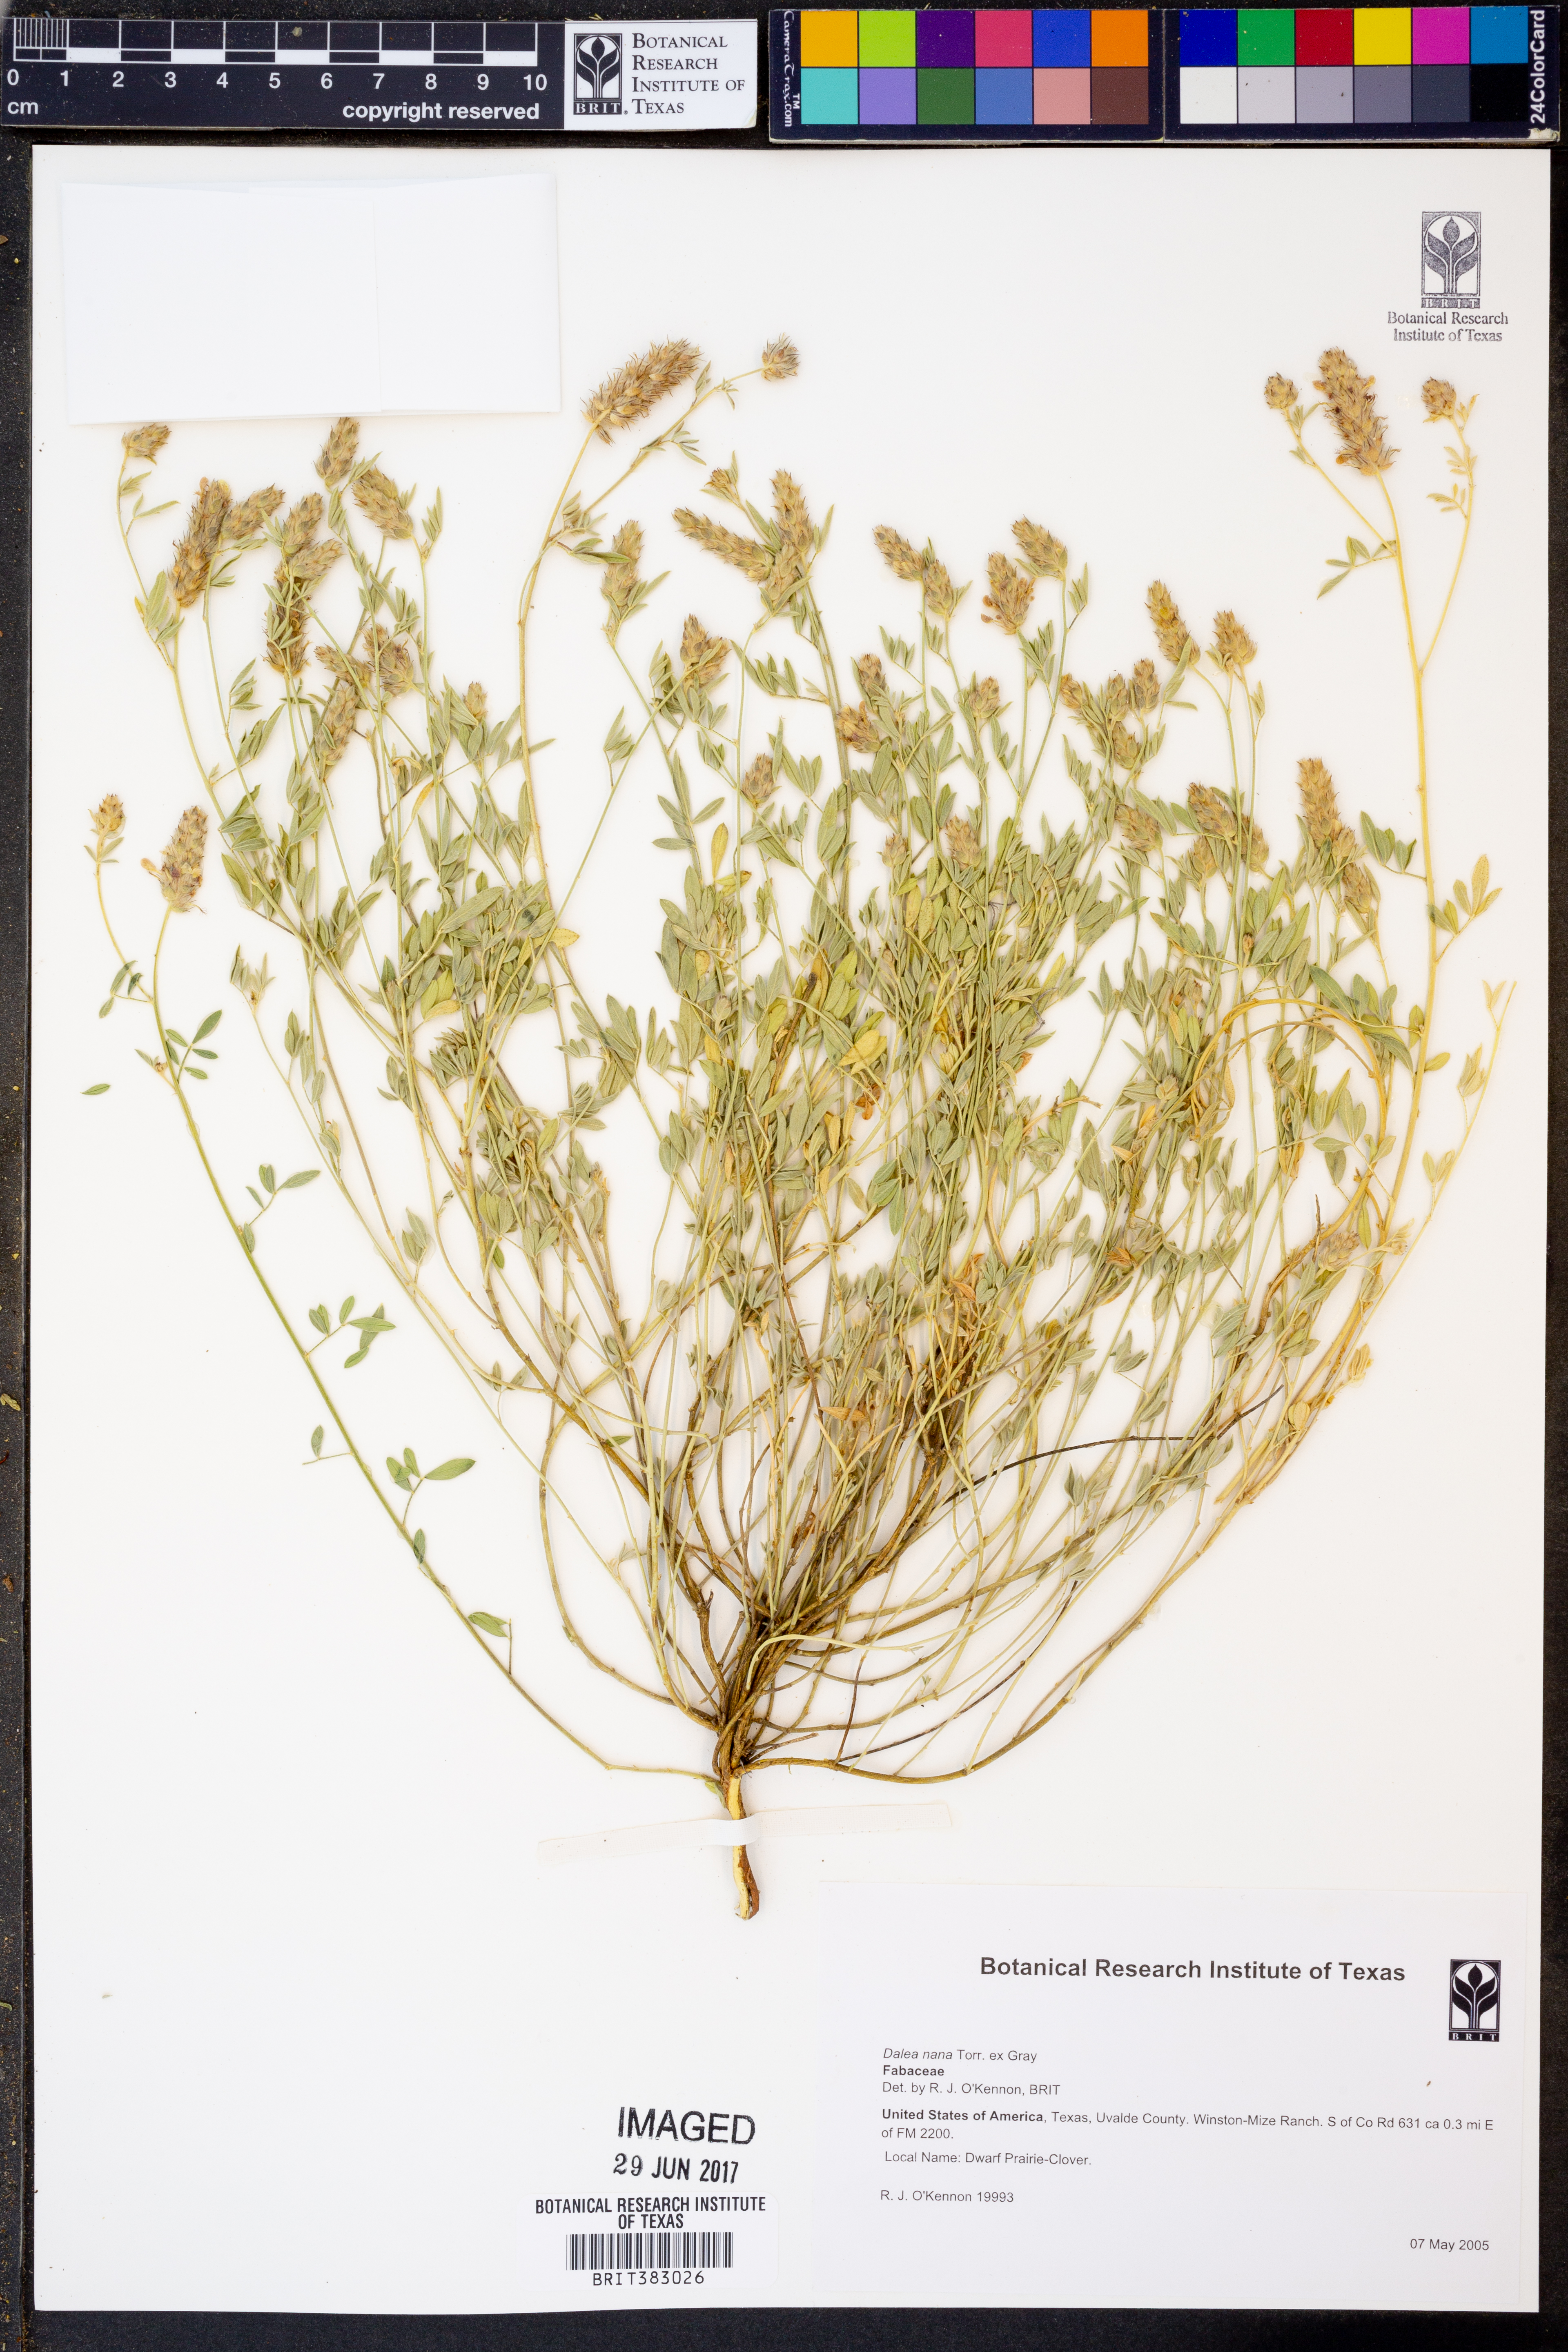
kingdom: Plantae
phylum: Tracheophyta
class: Magnoliopsida
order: Fabales
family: Fabaceae
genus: Dalea
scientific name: Dalea nana
